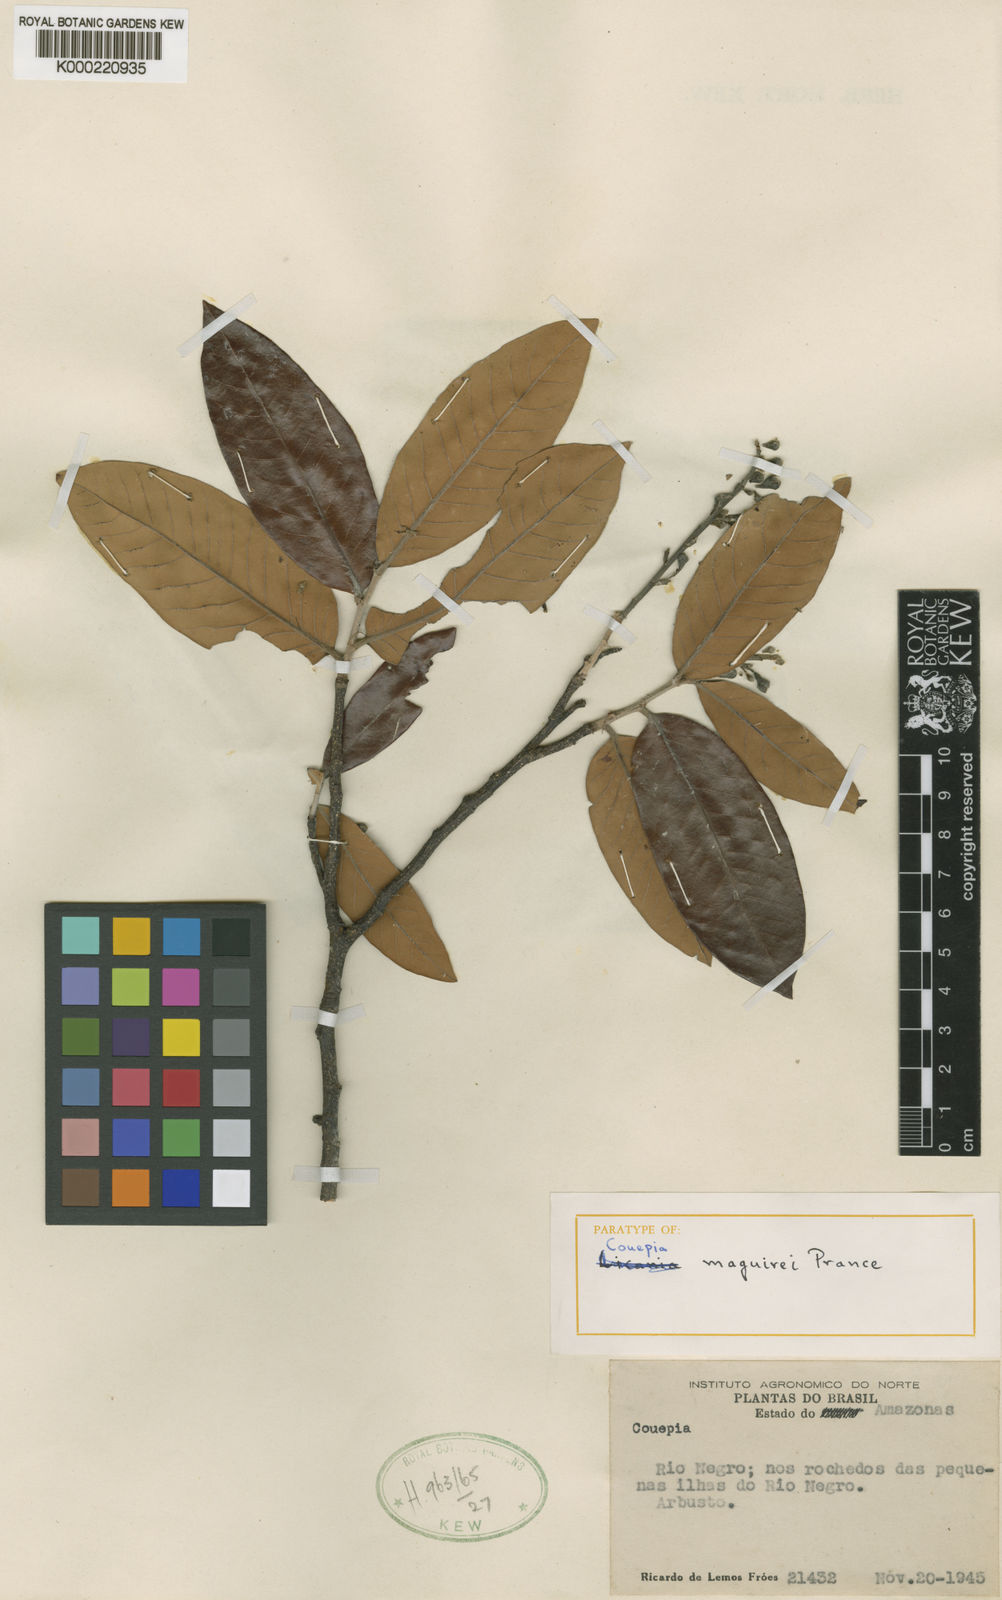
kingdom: Plantae
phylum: Tracheophyta
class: Magnoliopsida
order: Malpighiales
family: Chrysobalanaceae
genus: Couepia
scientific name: Couepia maguirei
